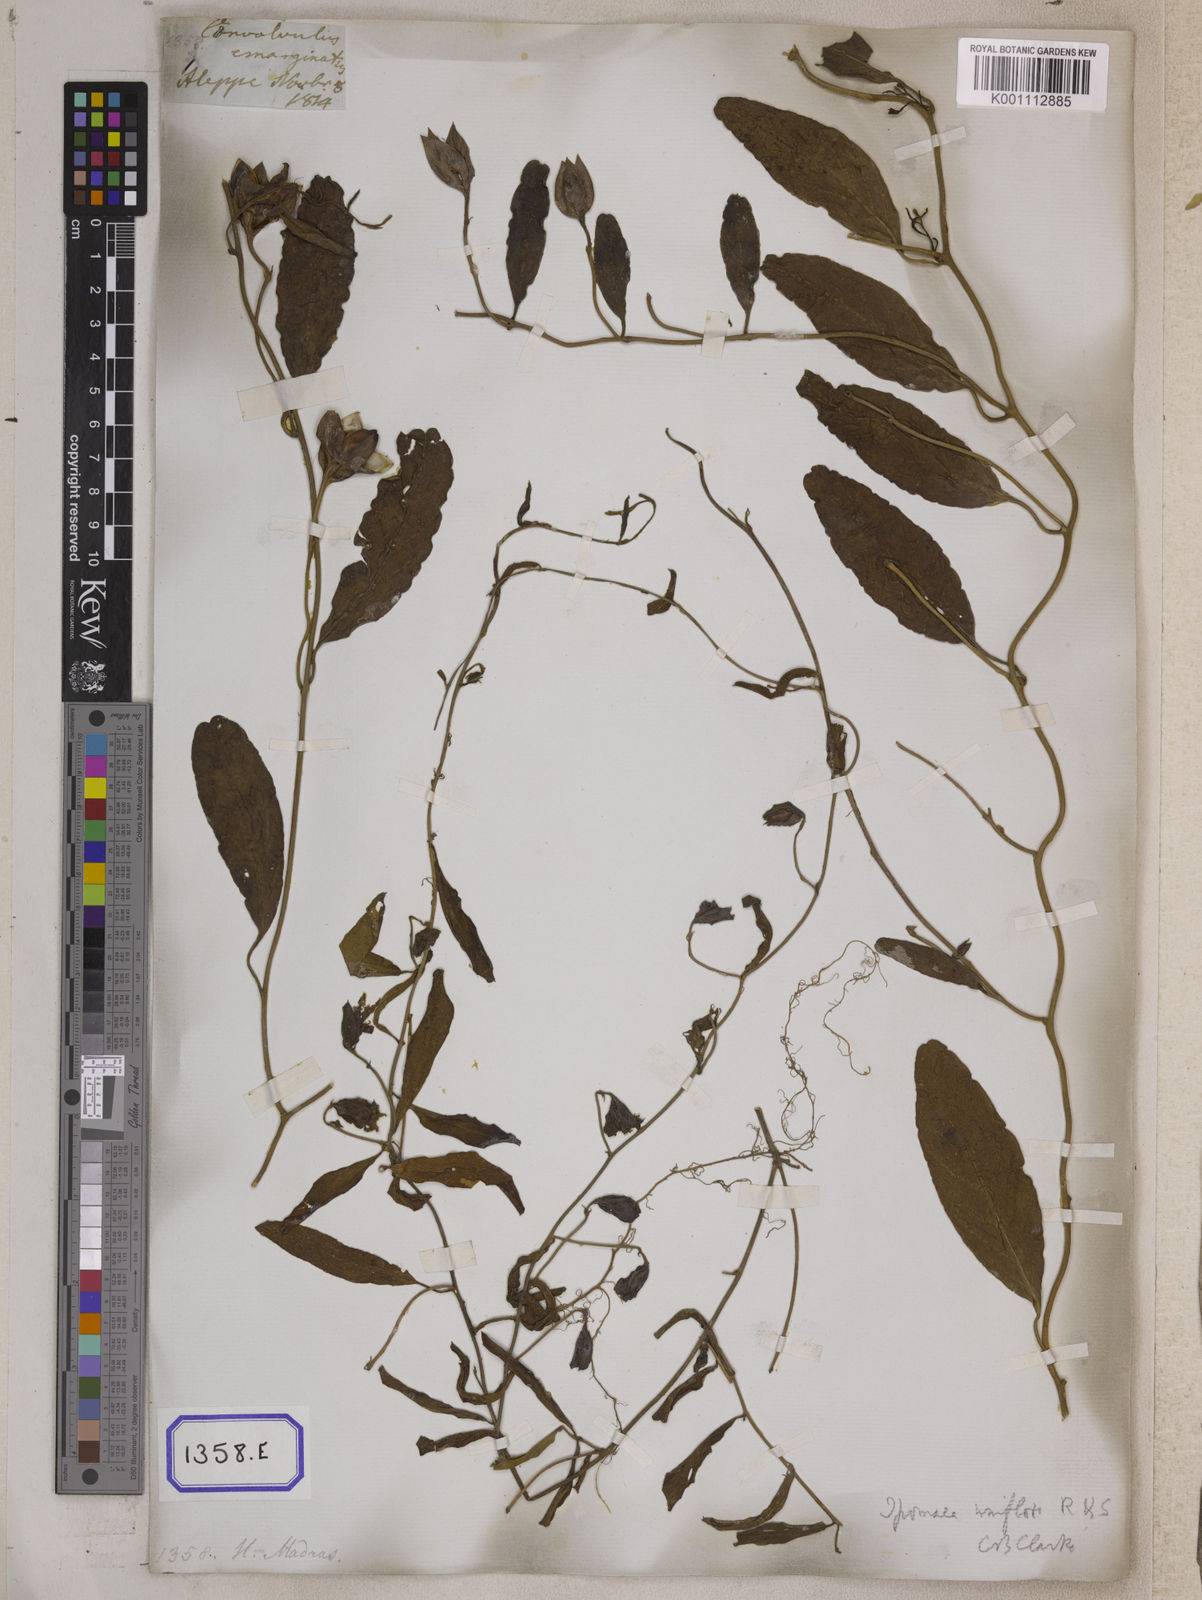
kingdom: Plantae
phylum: Tracheophyta
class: Magnoliopsida
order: Solanales
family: Convolvulaceae
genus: Aniseia
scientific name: Aniseia martinicensis
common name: Kulayadambu
